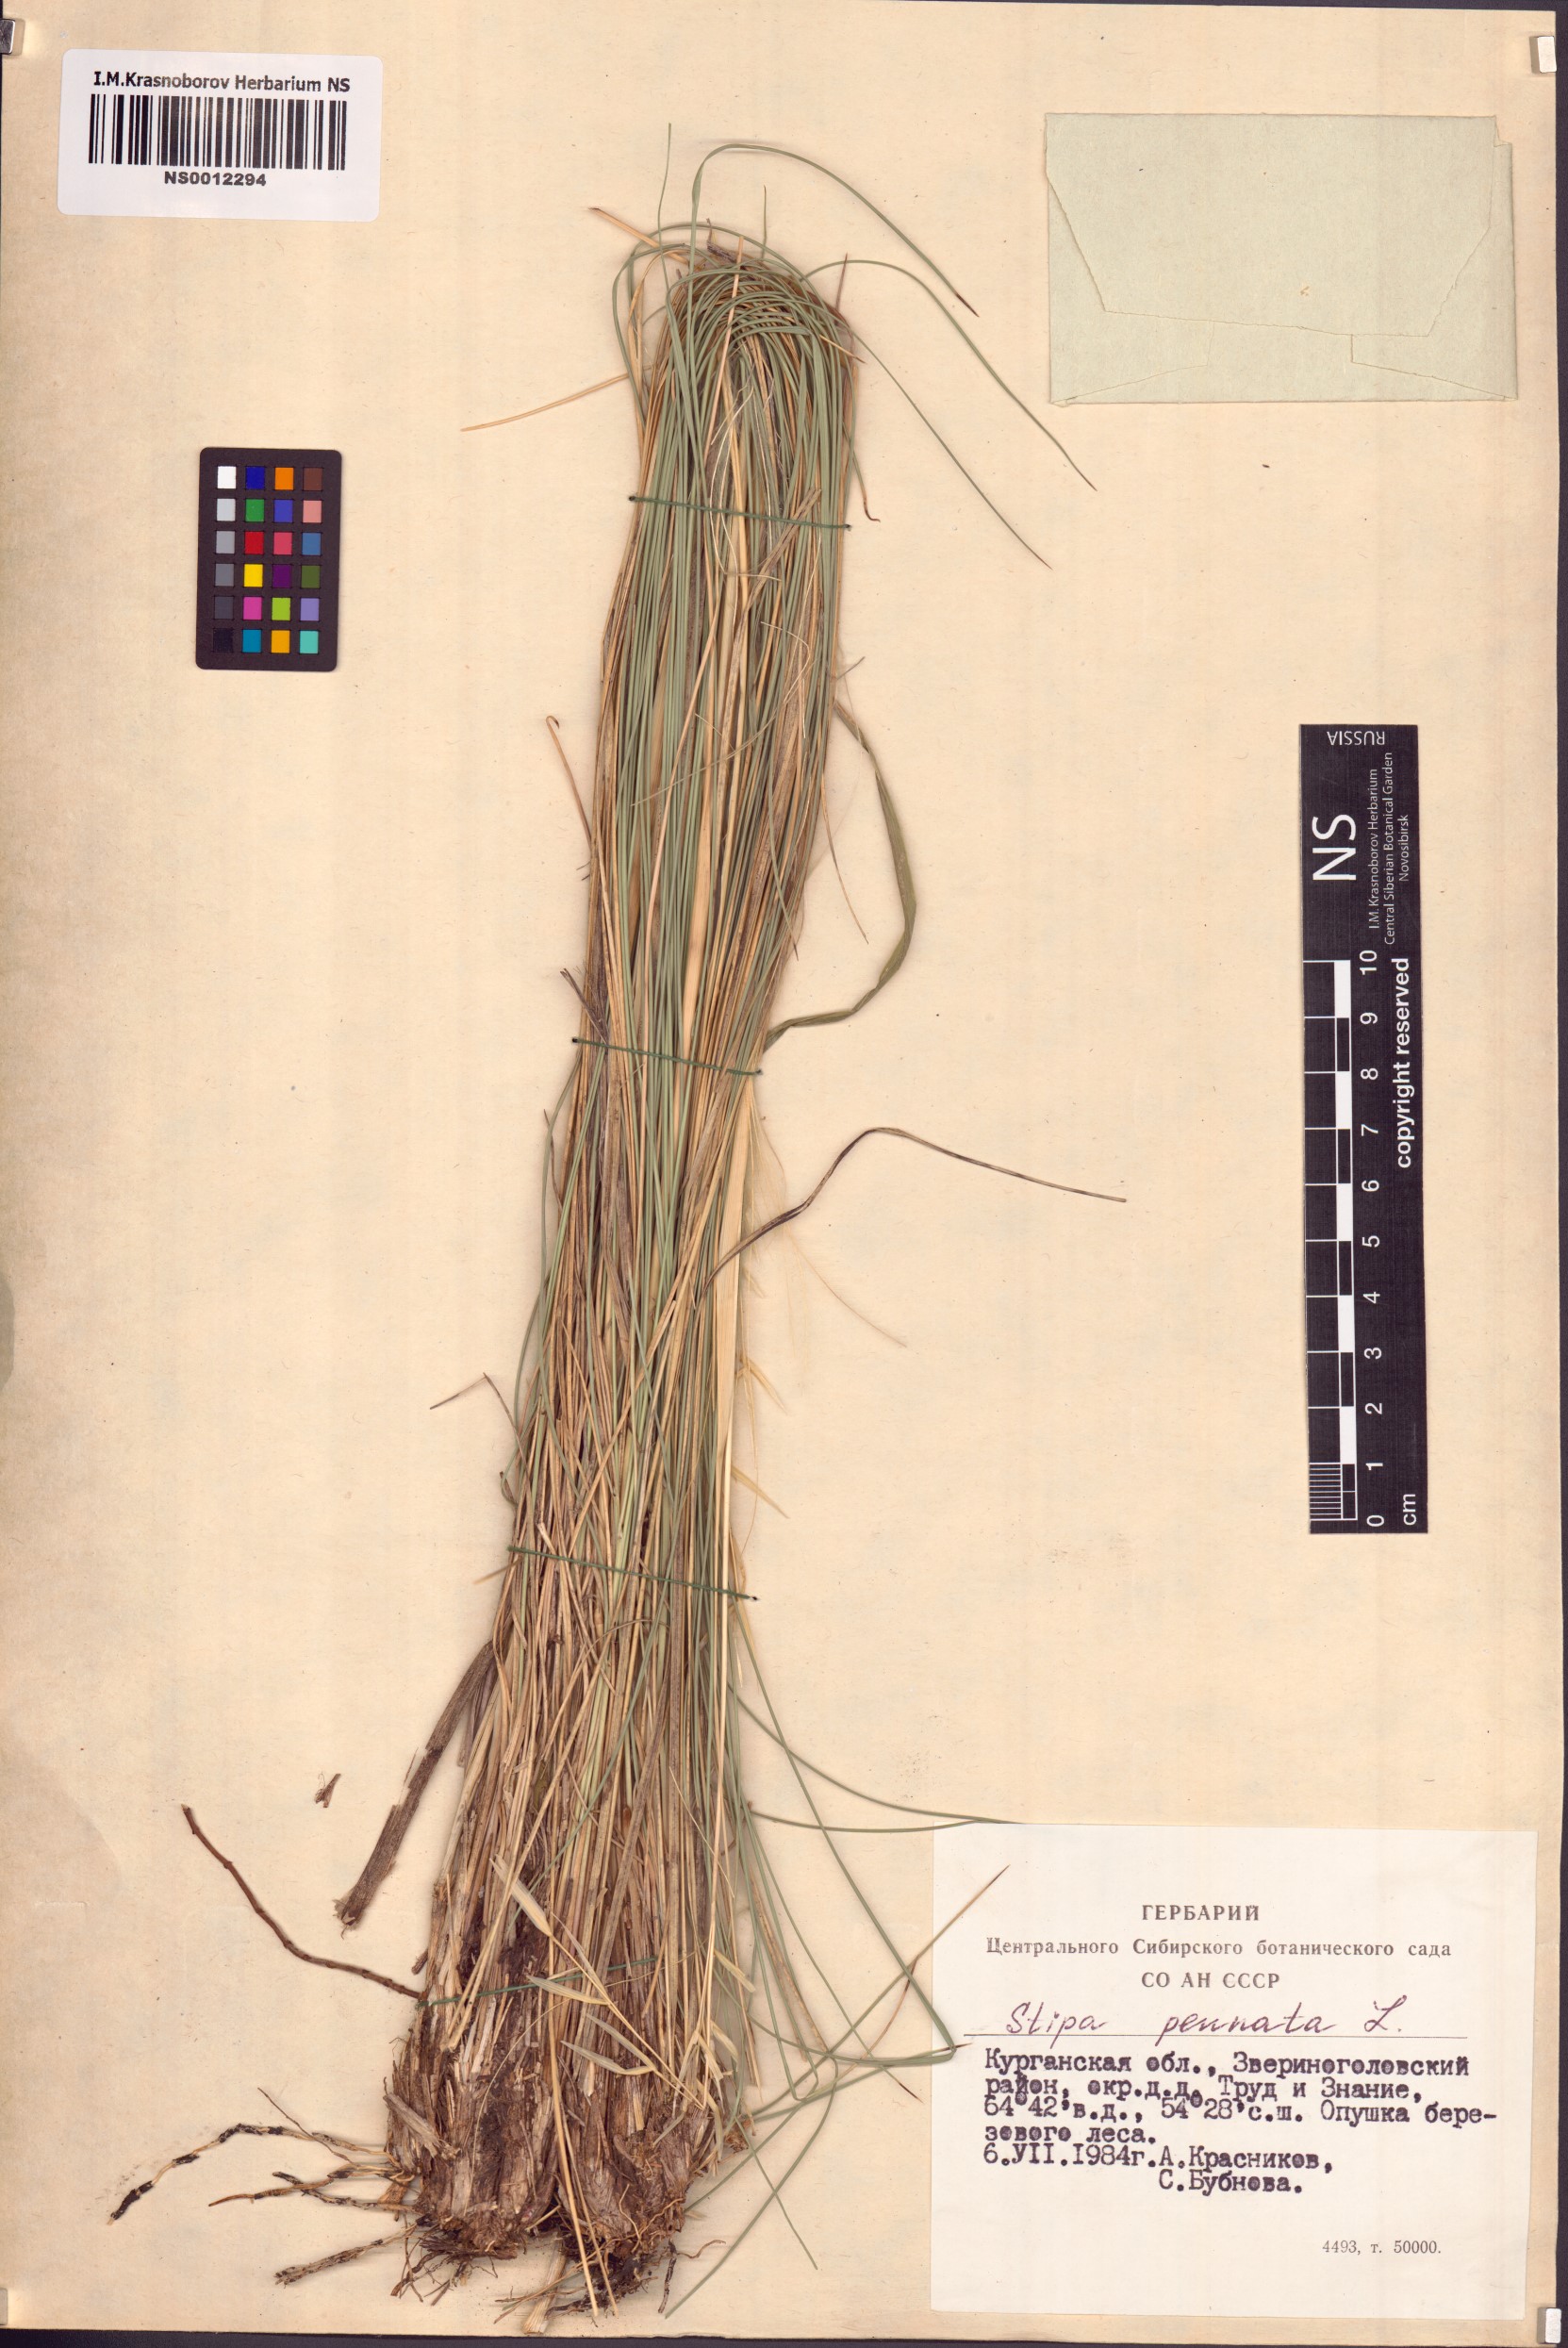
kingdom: Plantae
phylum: Tracheophyta
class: Liliopsida
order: Poales
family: Poaceae
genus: Stipa
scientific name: Stipa pennata
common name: European feather grass
